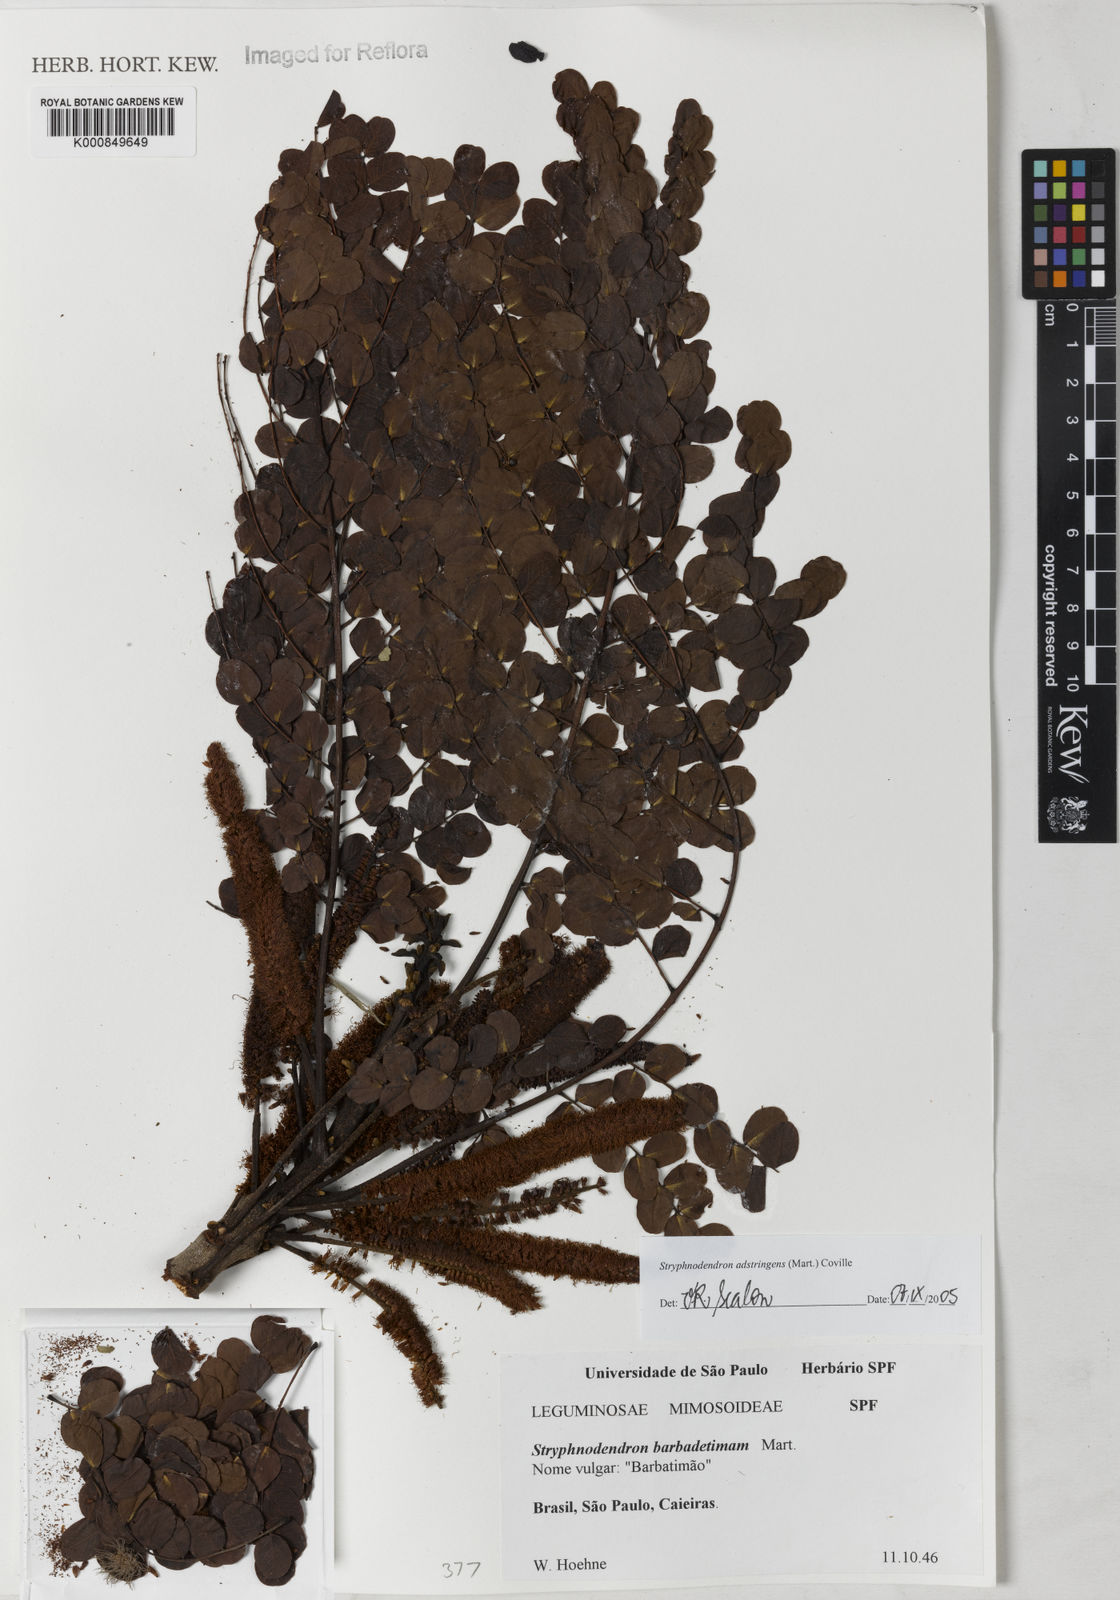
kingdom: Plantae
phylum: Tracheophyta
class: Magnoliopsida
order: Fabales
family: Fabaceae
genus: Stryphnodendron
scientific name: Stryphnodendron adstringens
